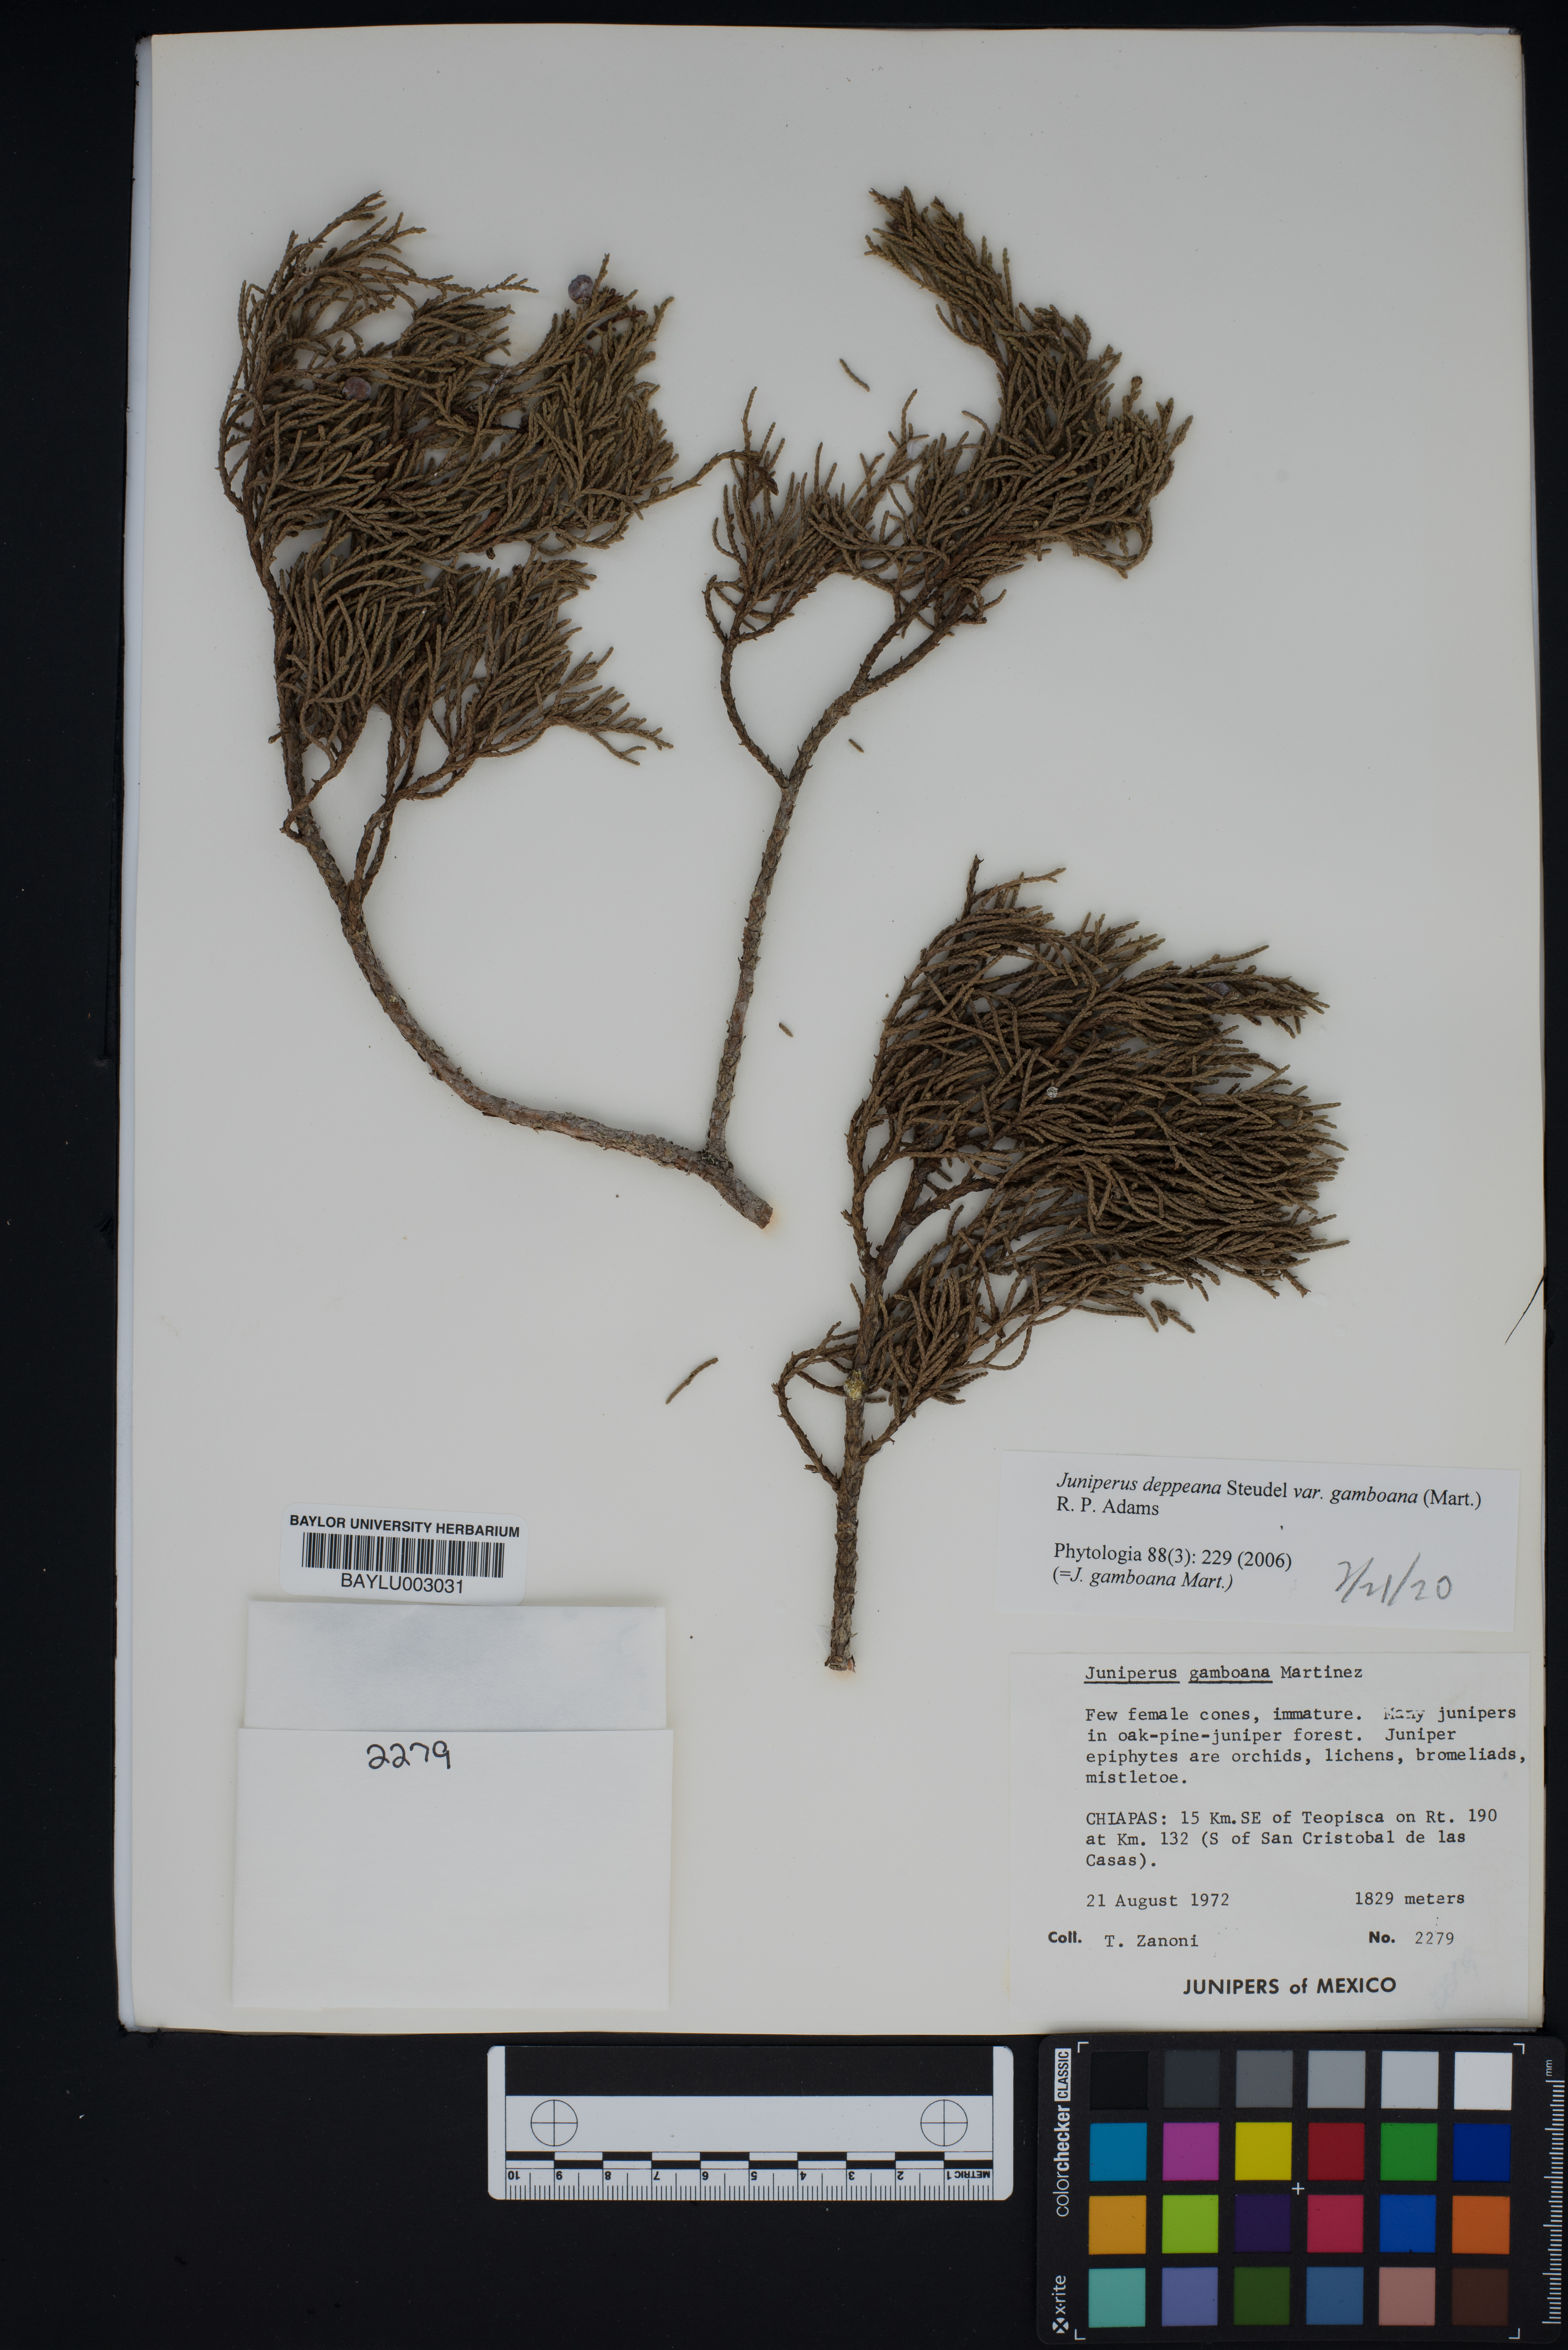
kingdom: Plantae
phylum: Tracheophyta
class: Pinopsida
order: Pinales
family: Cupressaceae
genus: Juniperus
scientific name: Juniperus gamboana
